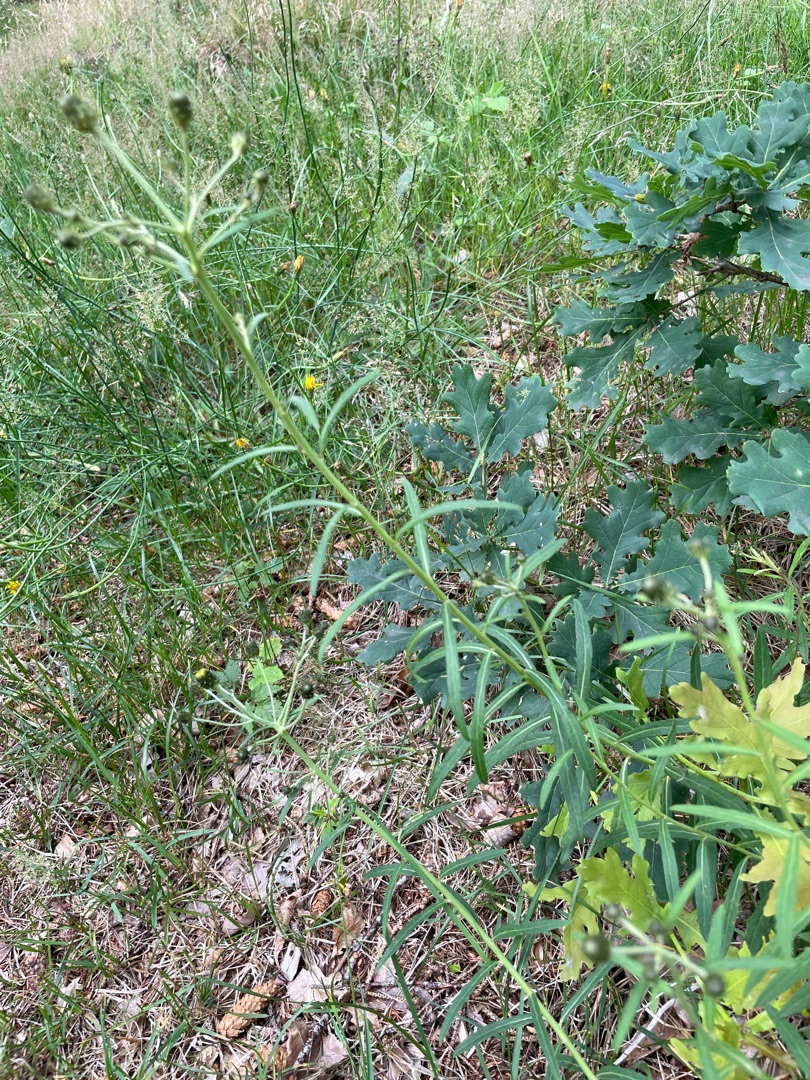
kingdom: Plantae
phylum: Tracheophyta
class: Magnoliopsida
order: Asterales
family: Asteraceae
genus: Hieracium
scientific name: Hieracium umbellatum
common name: Smalbladet høgeurt
